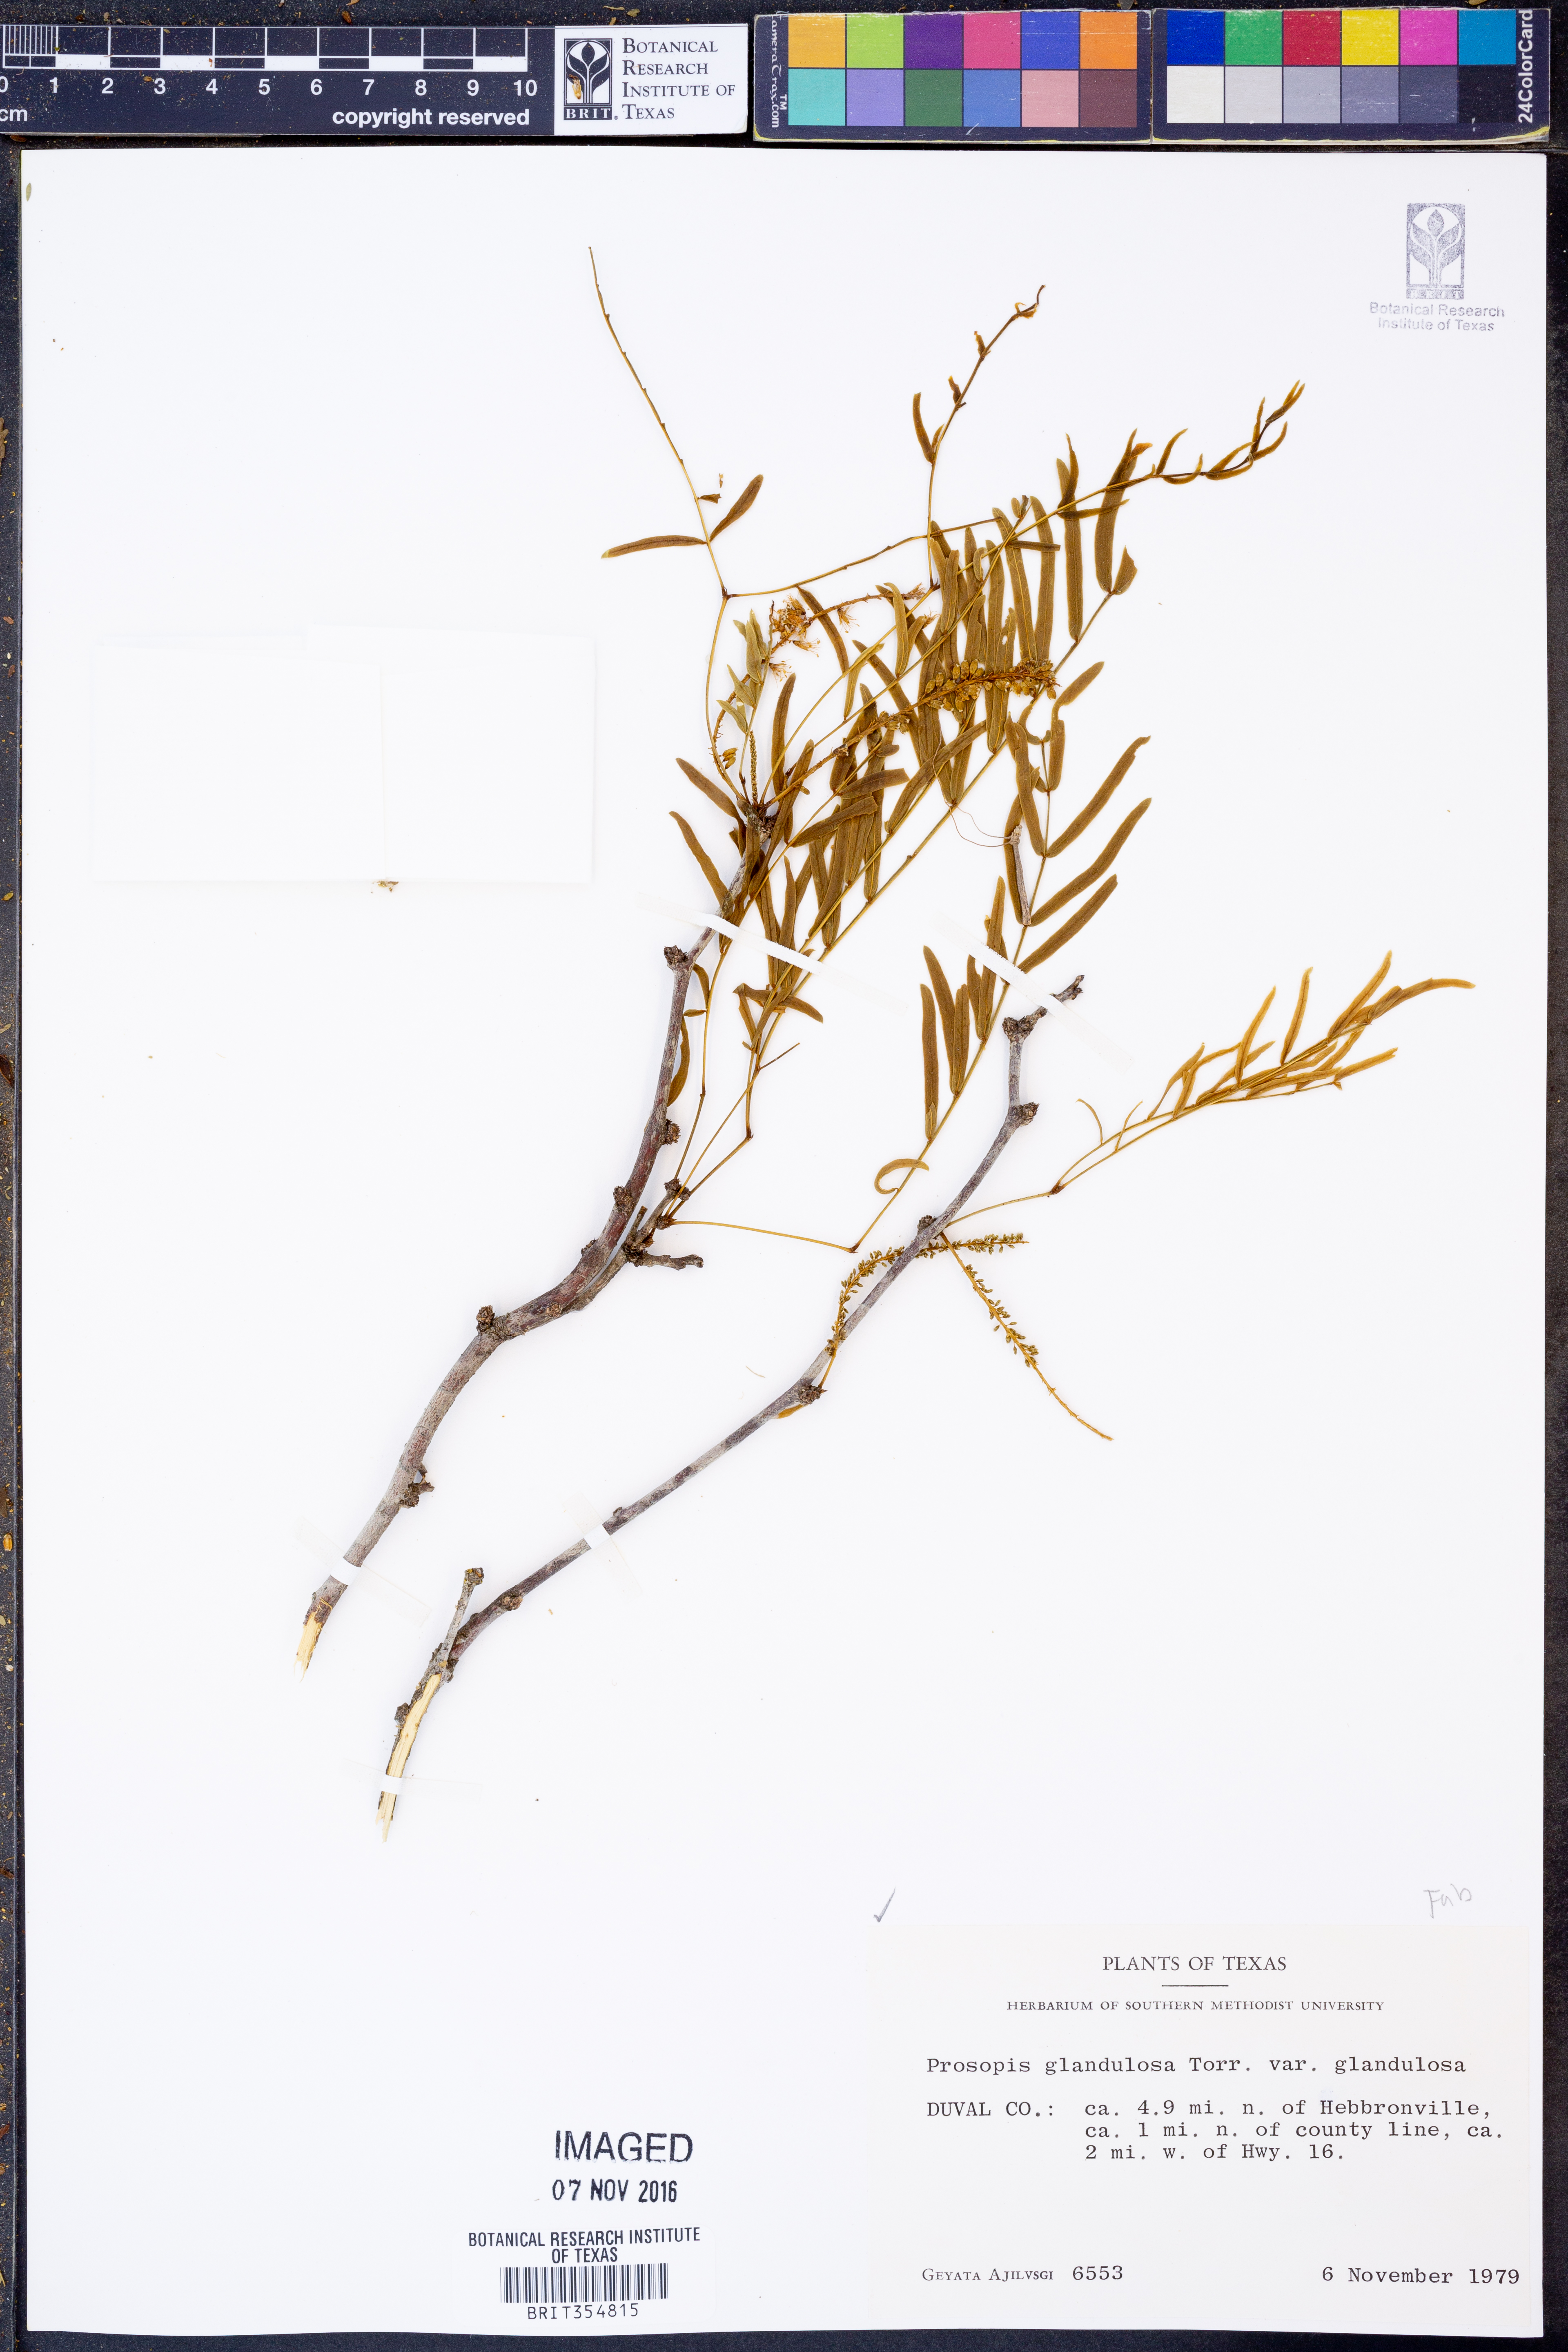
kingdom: Plantae
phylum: Tracheophyta
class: Magnoliopsida
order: Fabales
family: Fabaceae
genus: Prosopis
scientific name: Prosopis glandulosa
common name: Honey mesquite
